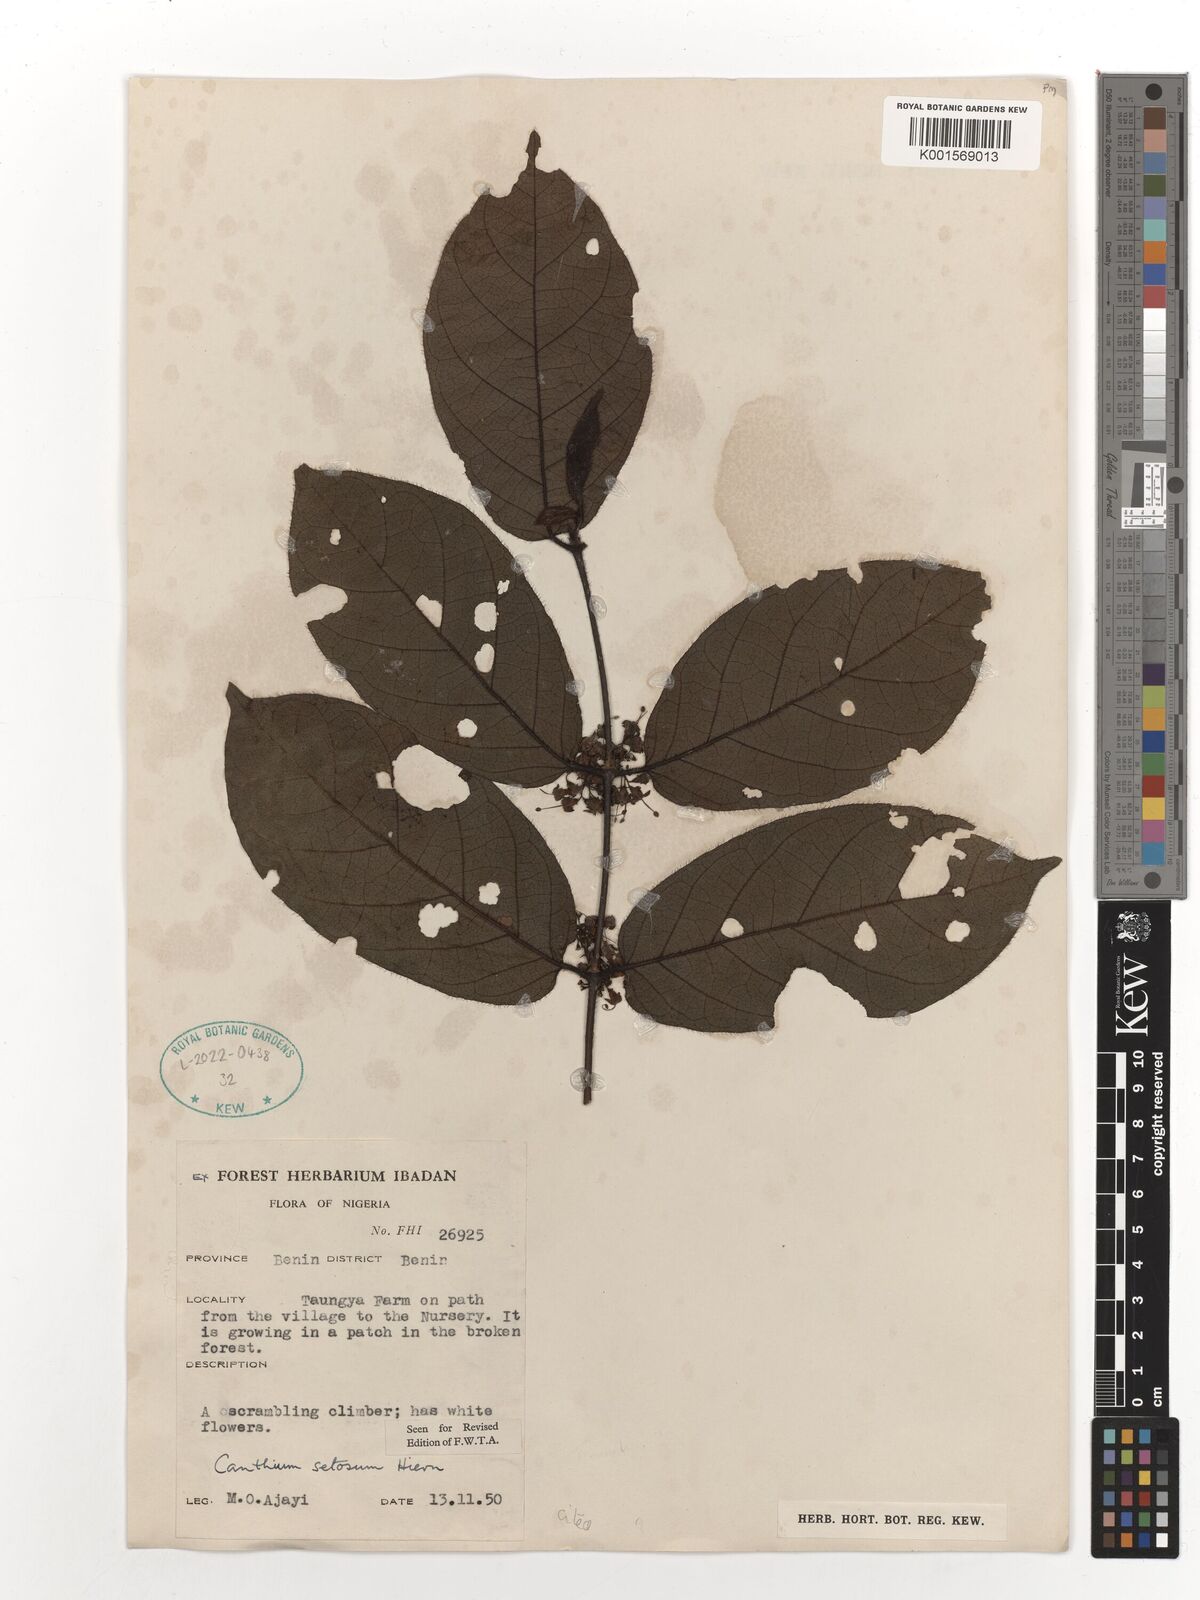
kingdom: Plantae
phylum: Tracheophyta
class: Magnoliopsida
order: Gentianales
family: Rubiaceae
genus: Keetia
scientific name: Keetia hispida
